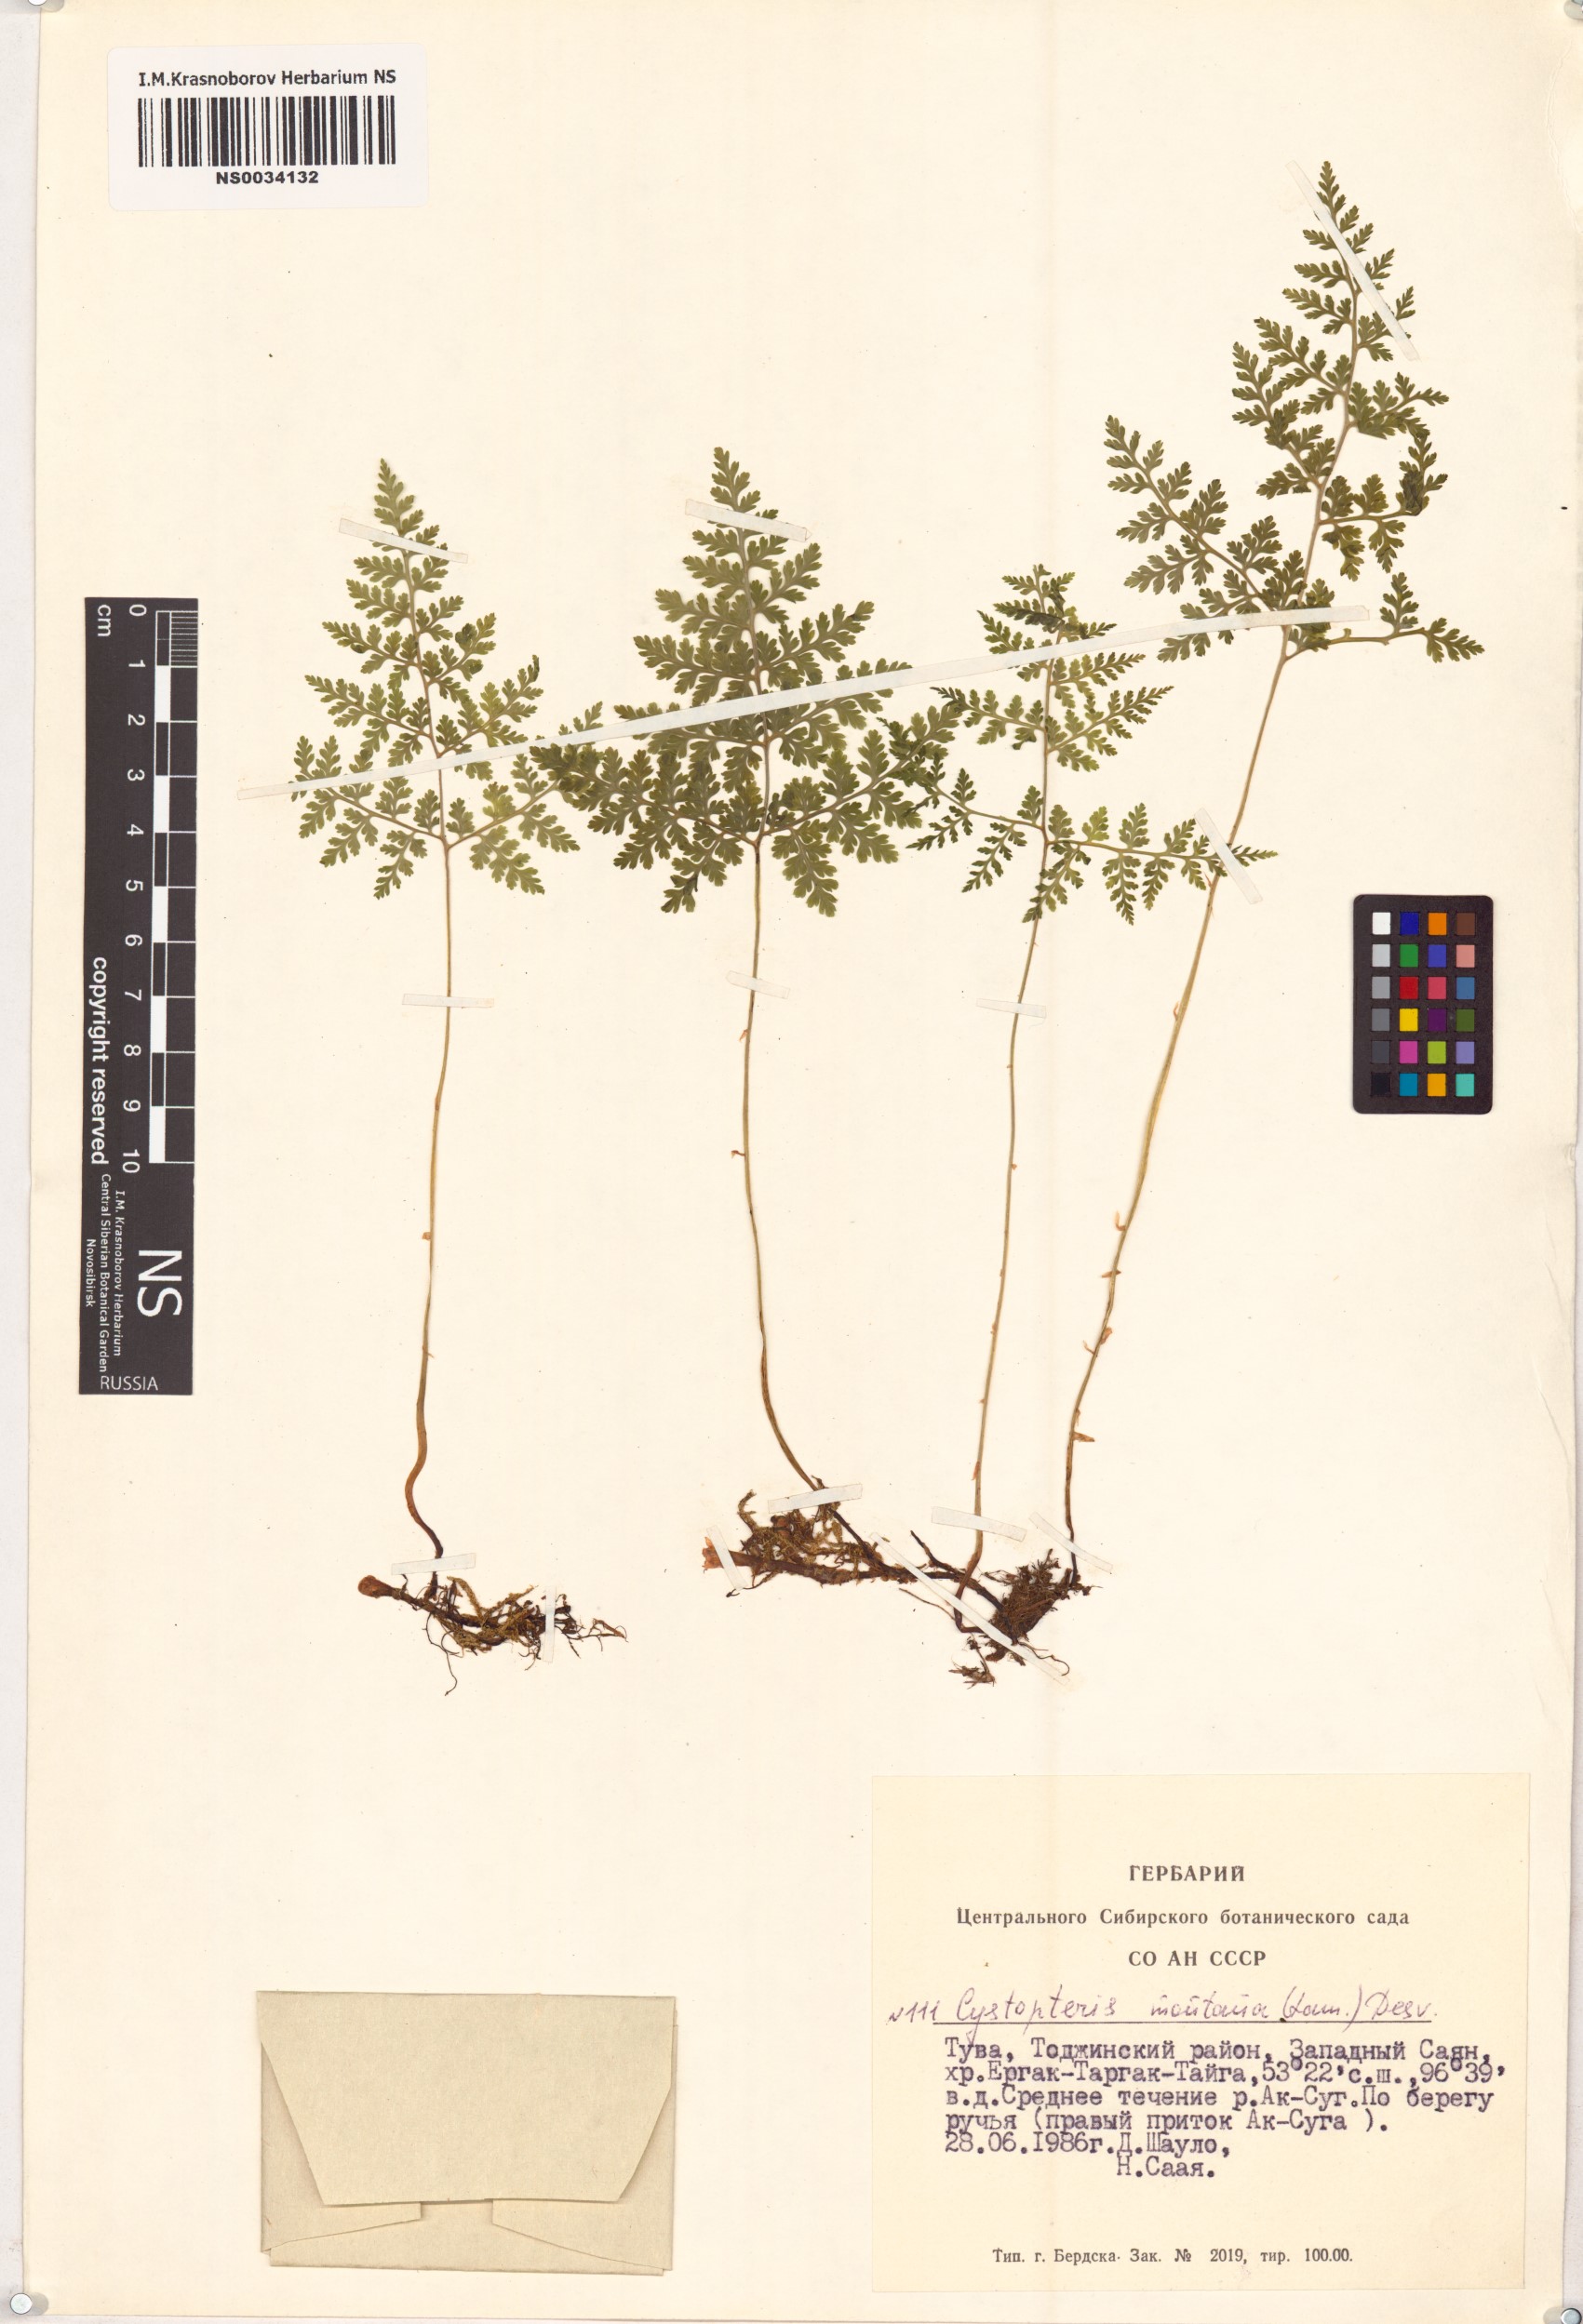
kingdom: Plantae
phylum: Tracheophyta
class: Polypodiopsida
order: Polypodiales
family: Cystopteridaceae
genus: Cystopteris
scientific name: Cystopteris montana
